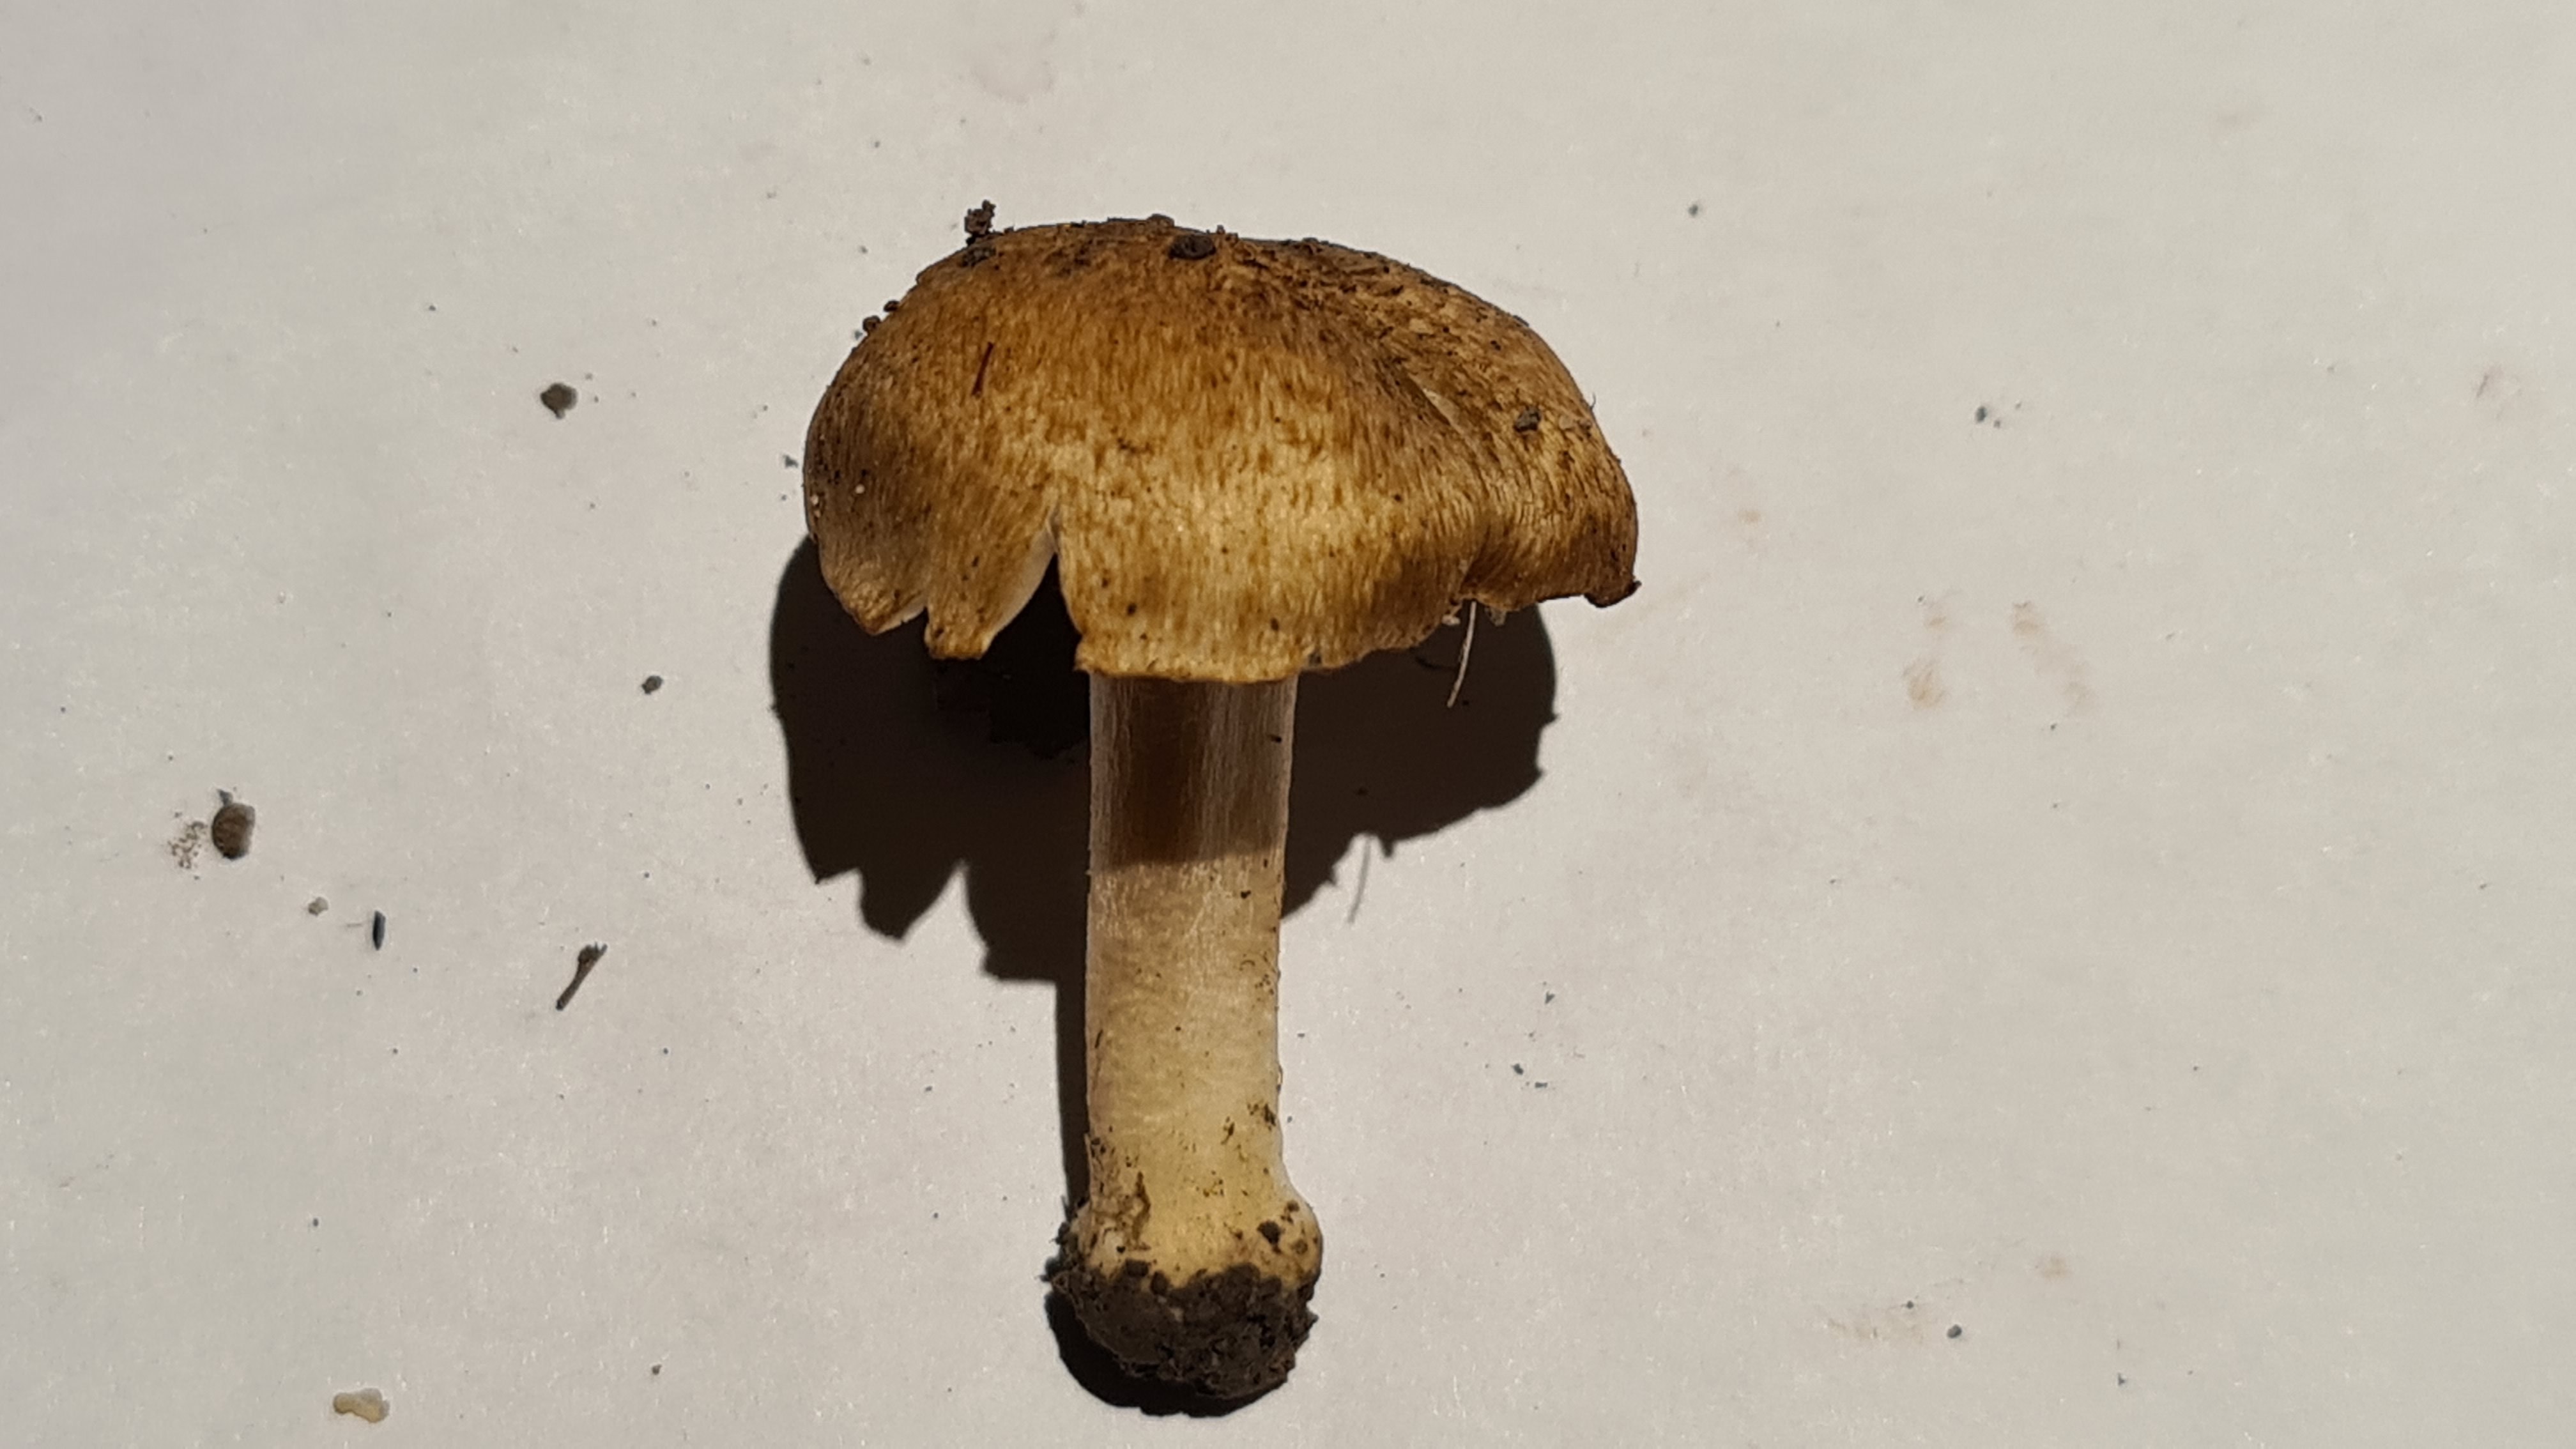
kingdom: Fungi
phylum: Basidiomycota
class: Agaricomycetes
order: Agaricales
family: Inocybaceae
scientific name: Inocybaceae
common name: trævlhatfamilien
